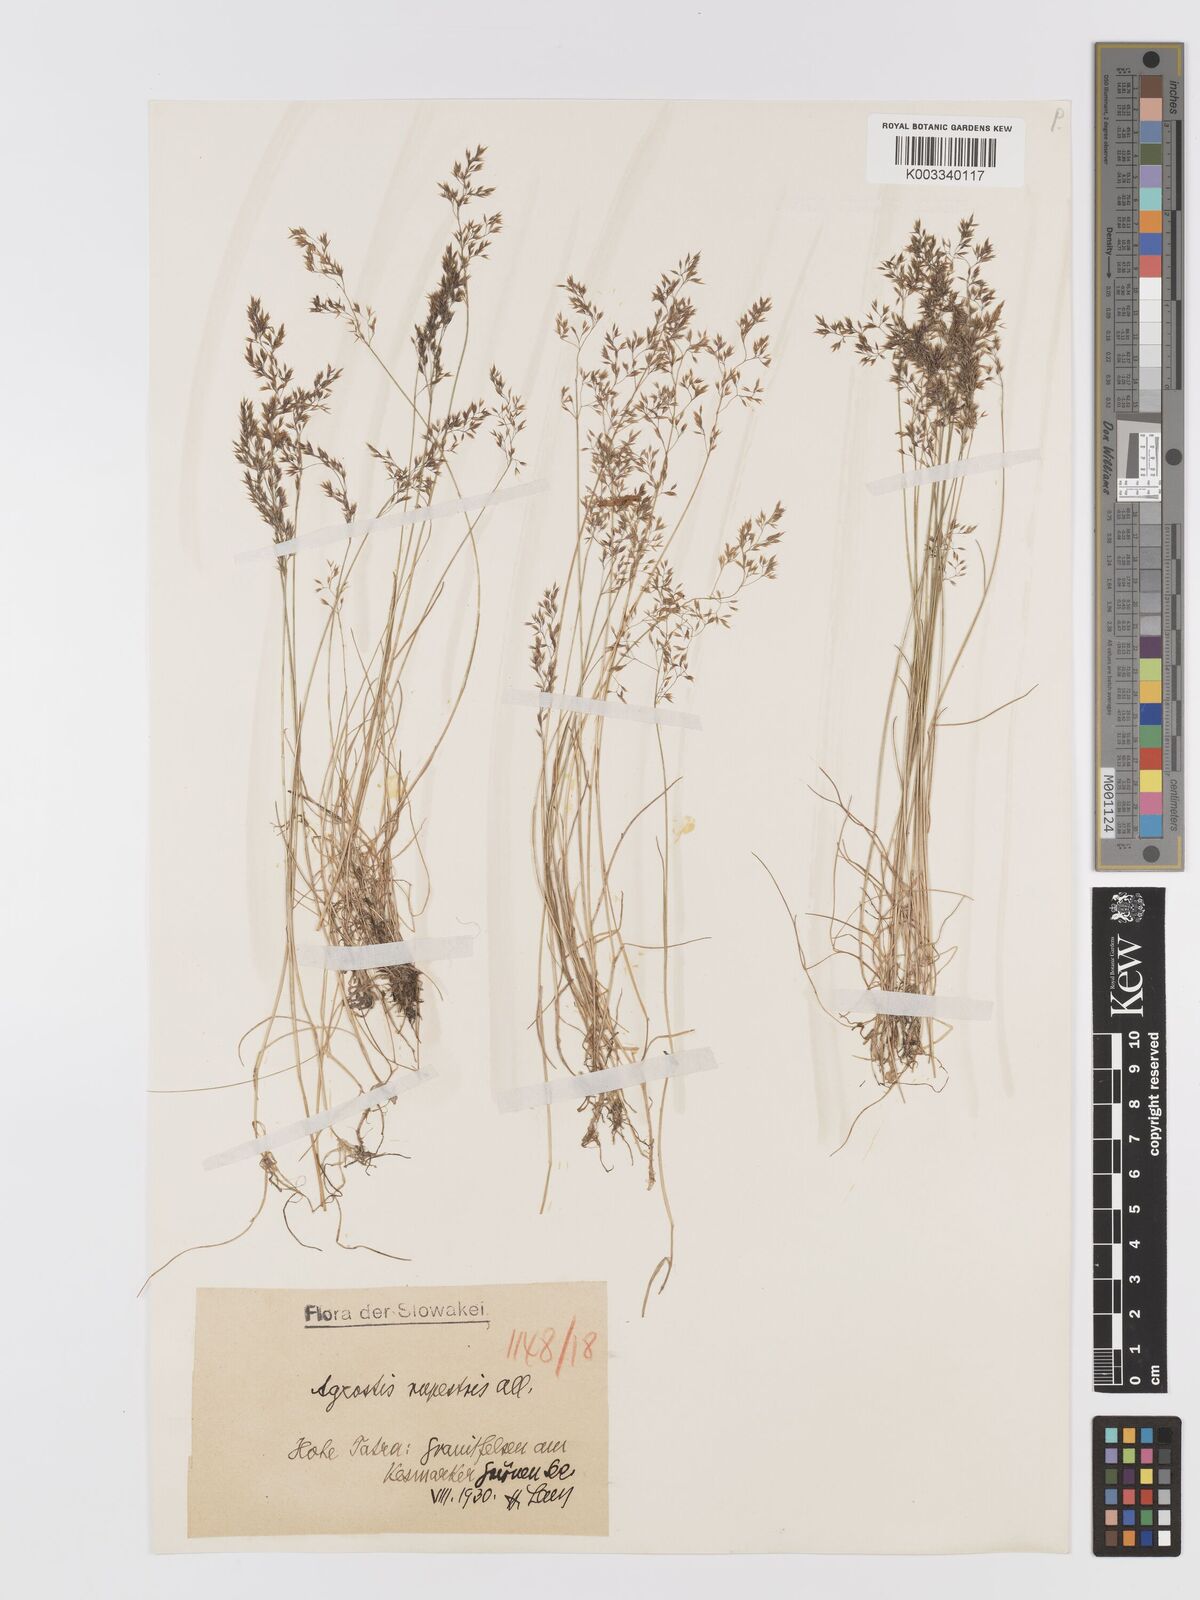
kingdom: Plantae
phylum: Tracheophyta
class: Liliopsida
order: Poales
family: Poaceae
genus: Agrostis
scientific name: Agrostis rupestris
